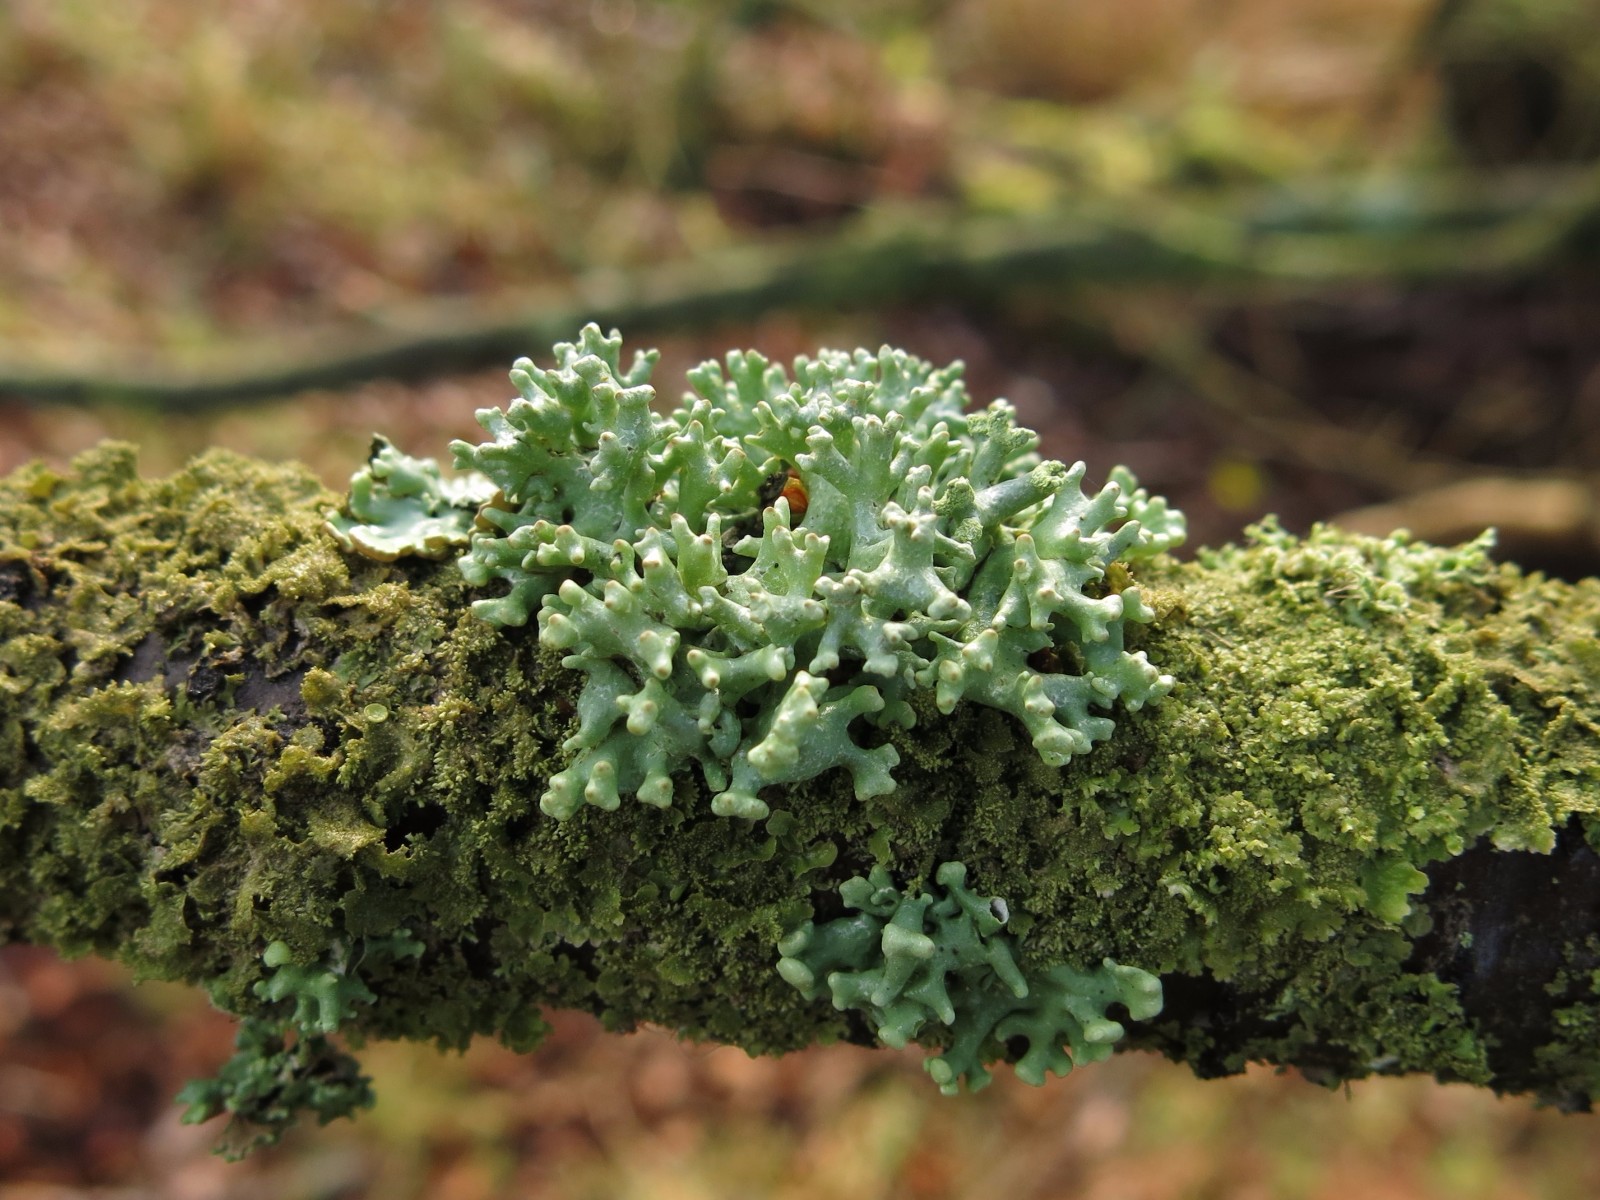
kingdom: Fungi
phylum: Ascomycota
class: Lecanoromycetes
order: Lecanorales
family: Parmeliaceae
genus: Hypogymnia
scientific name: Hypogymnia tubulosa
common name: finger-kvistlav
